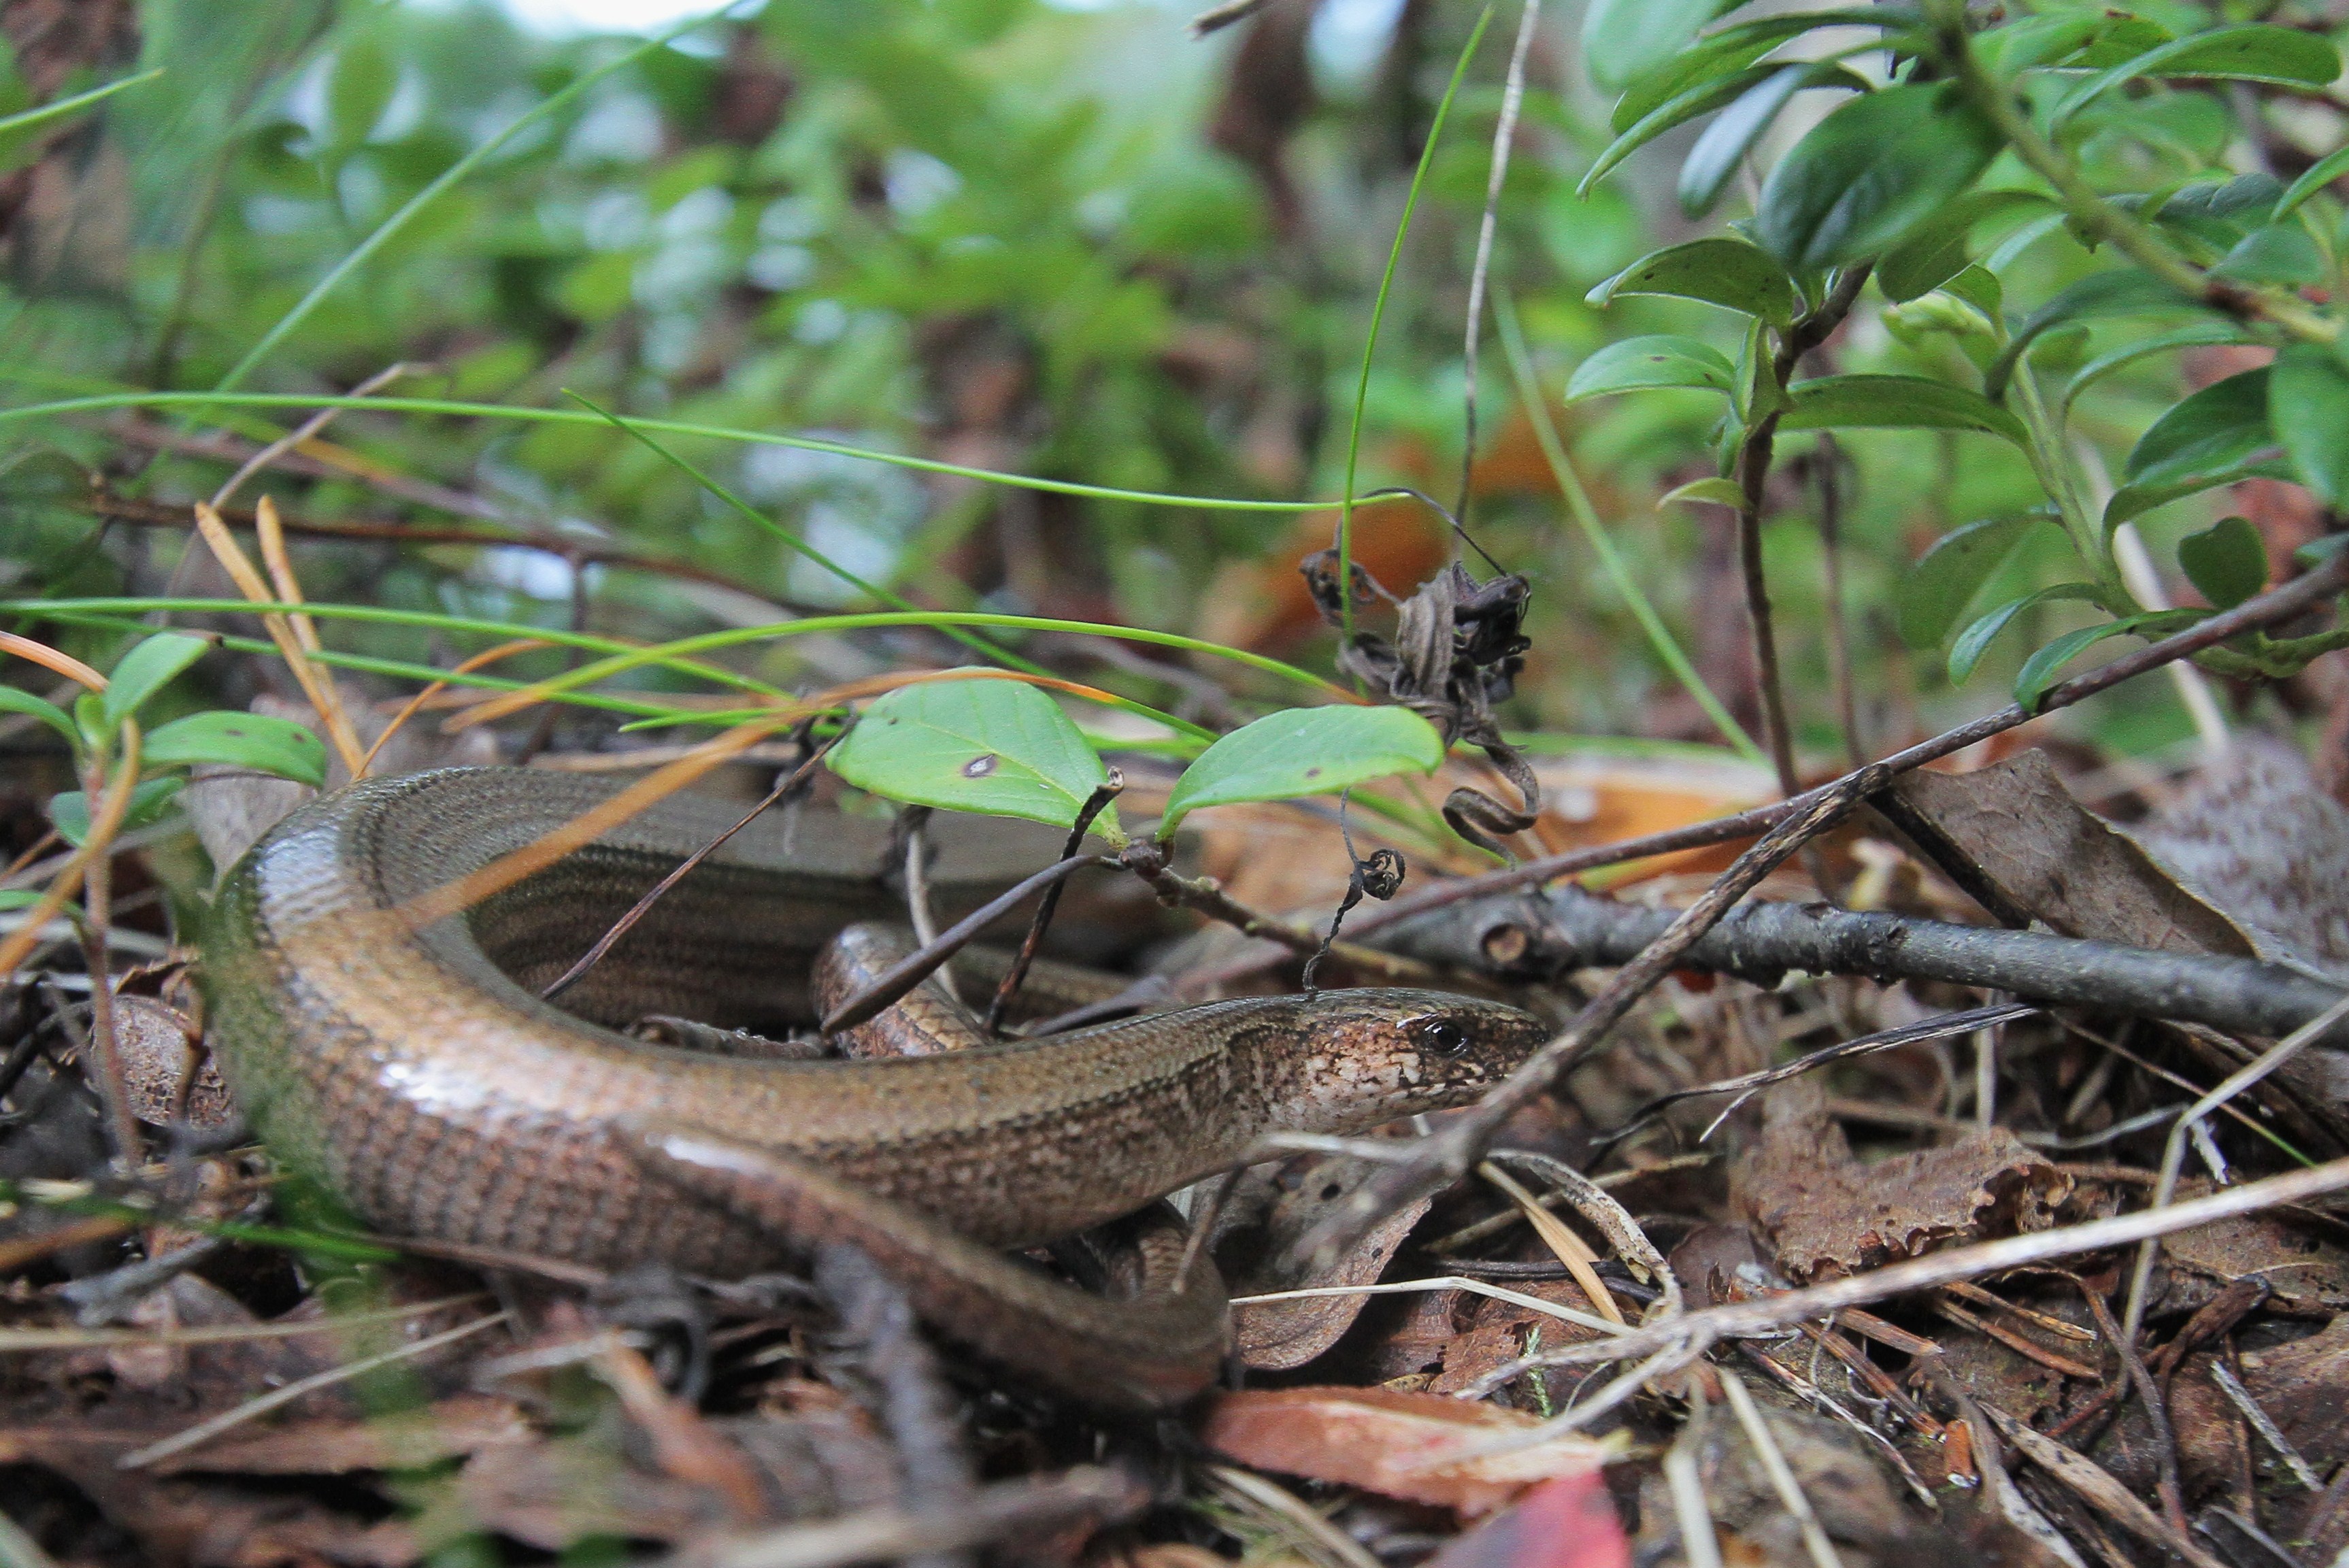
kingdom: Animalia
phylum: Chordata
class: Squamata
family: Anguidae
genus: Anguis
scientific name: Anguis colchica
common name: Slow worm
